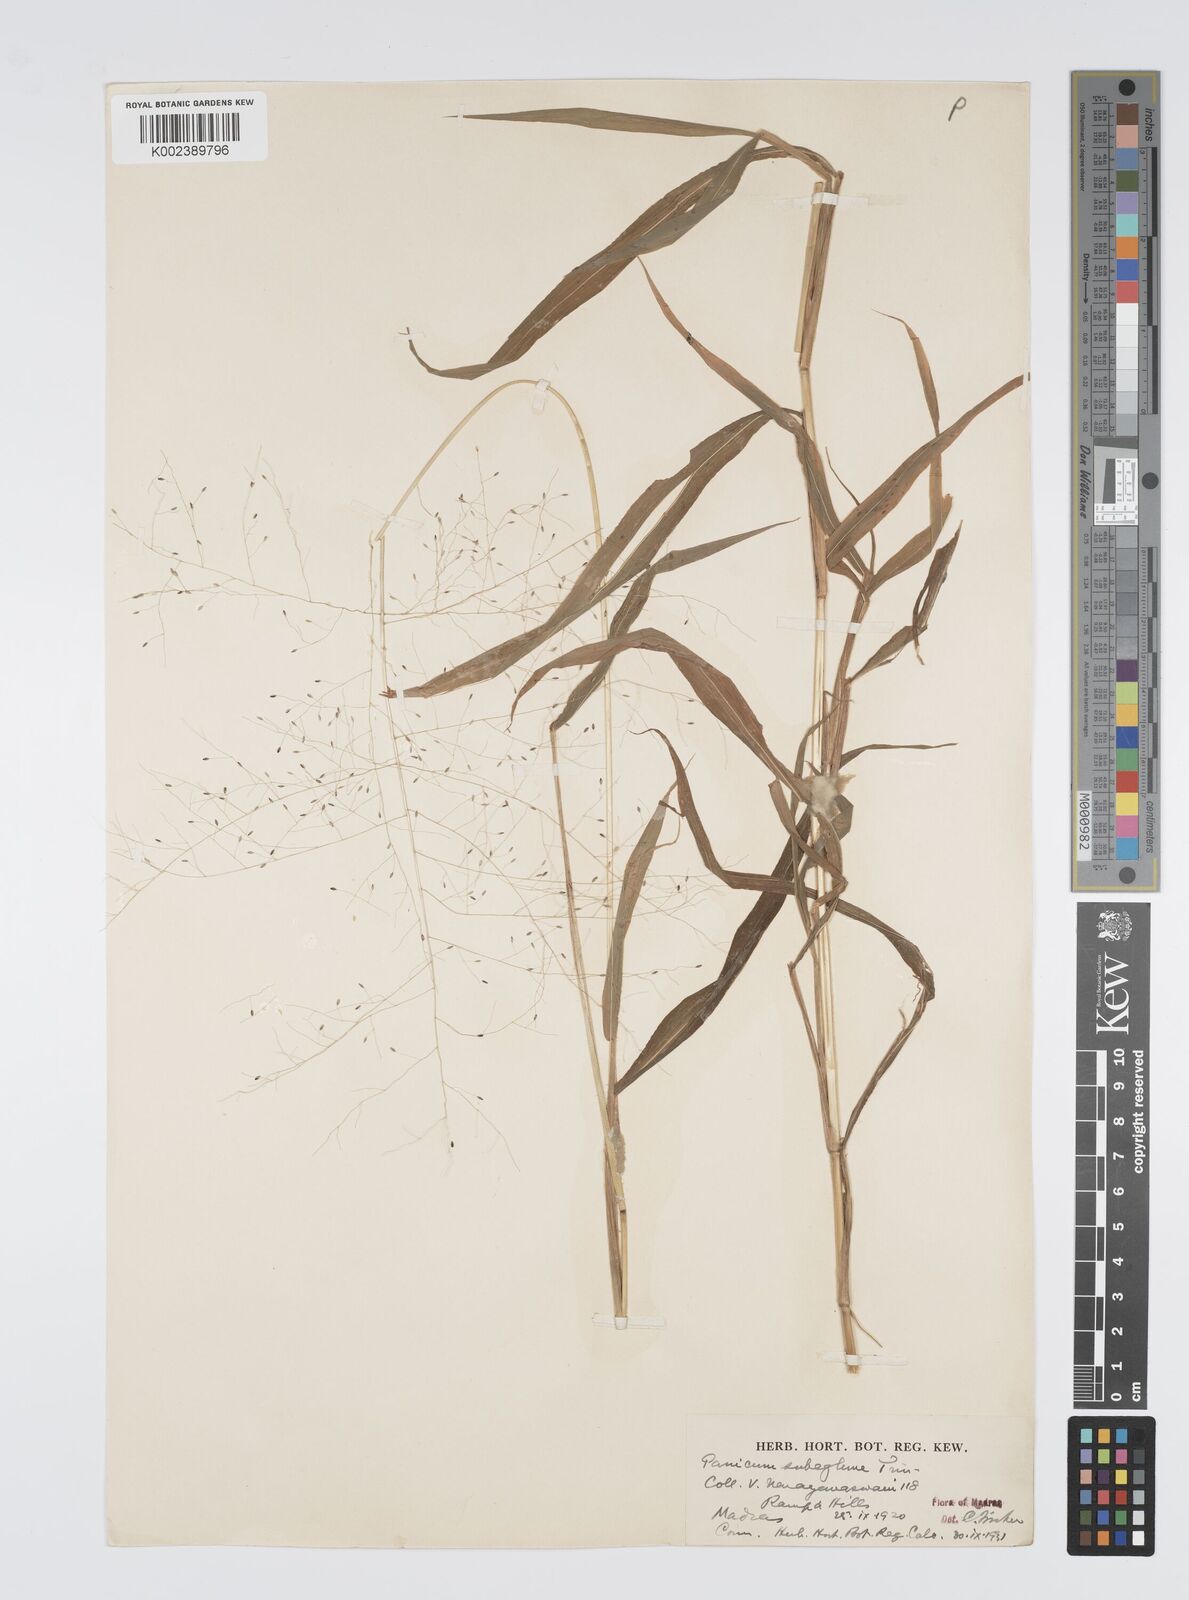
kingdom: Plantae
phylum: Tracheophyta
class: Liliopsida
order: Poales
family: Poaceae
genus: Digitaria
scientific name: Digitaria tomentosa
